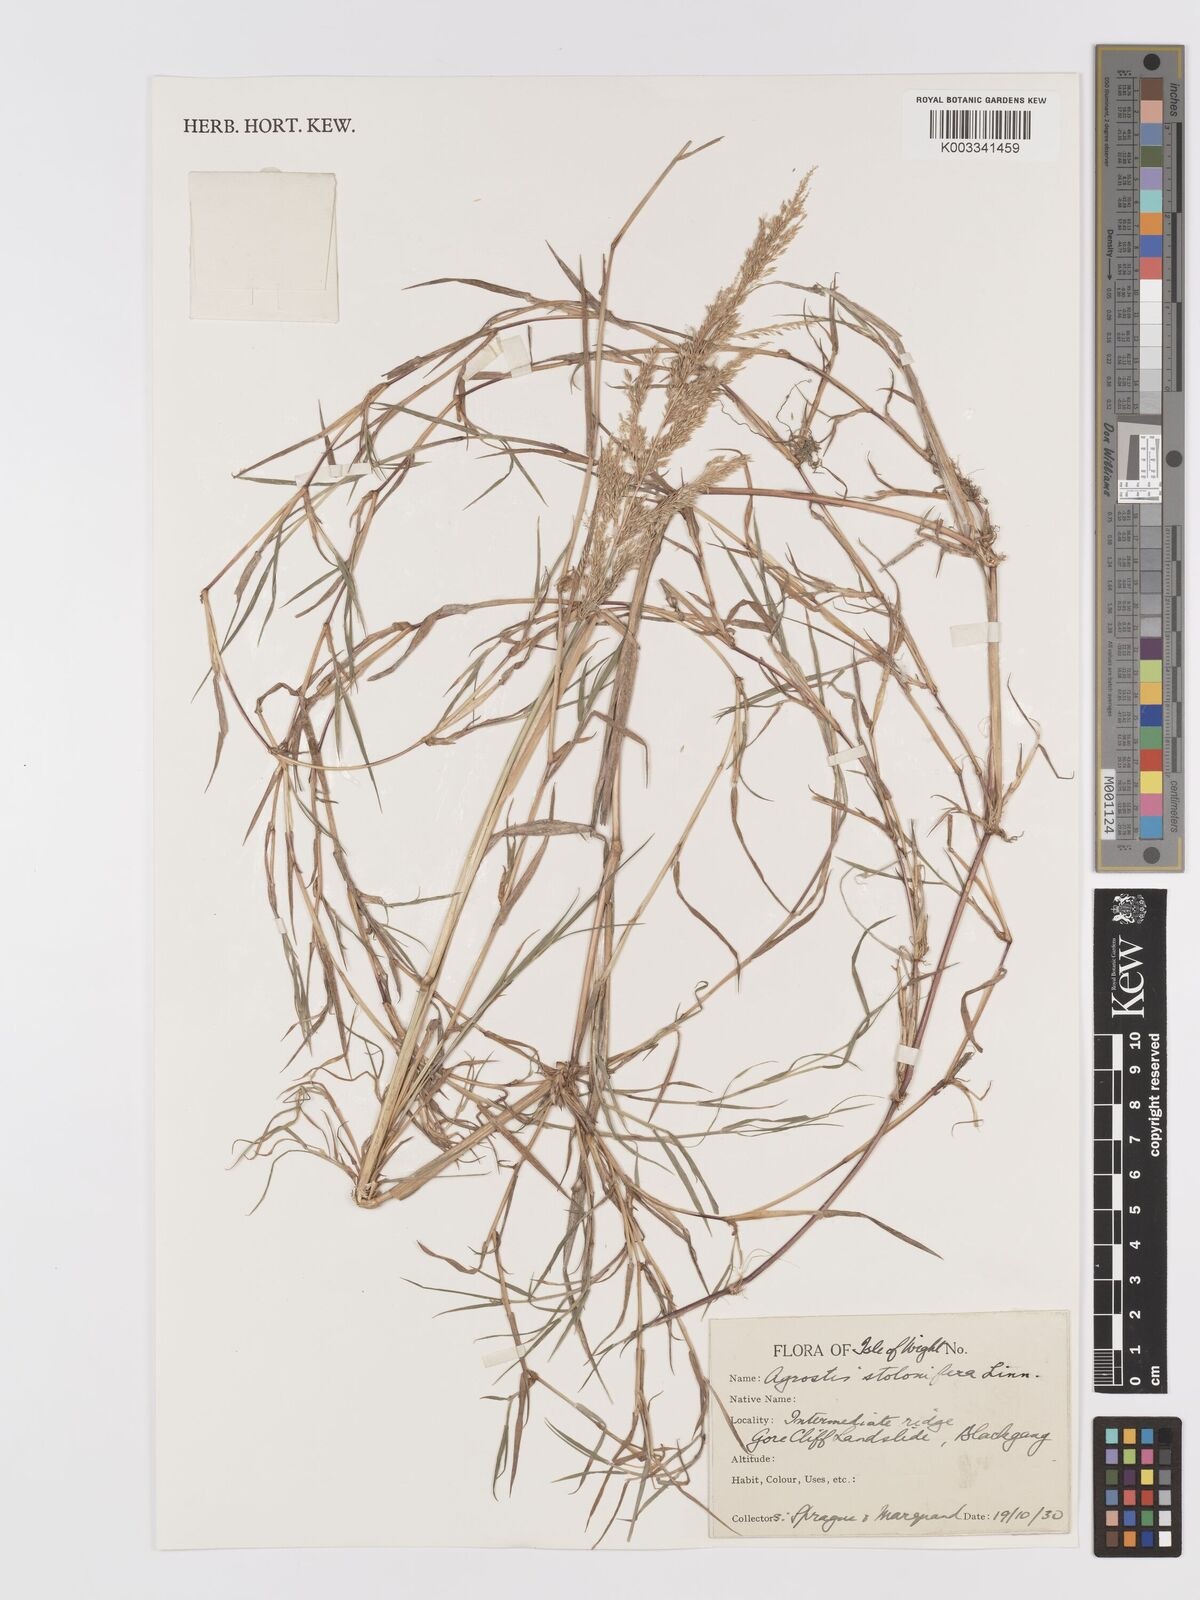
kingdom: Plantae
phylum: Tracheophyta
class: Liliopsida
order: Poales
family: Poaceae
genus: Agrostis
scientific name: Agrostis stolonifera
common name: Creeping bentgrass
